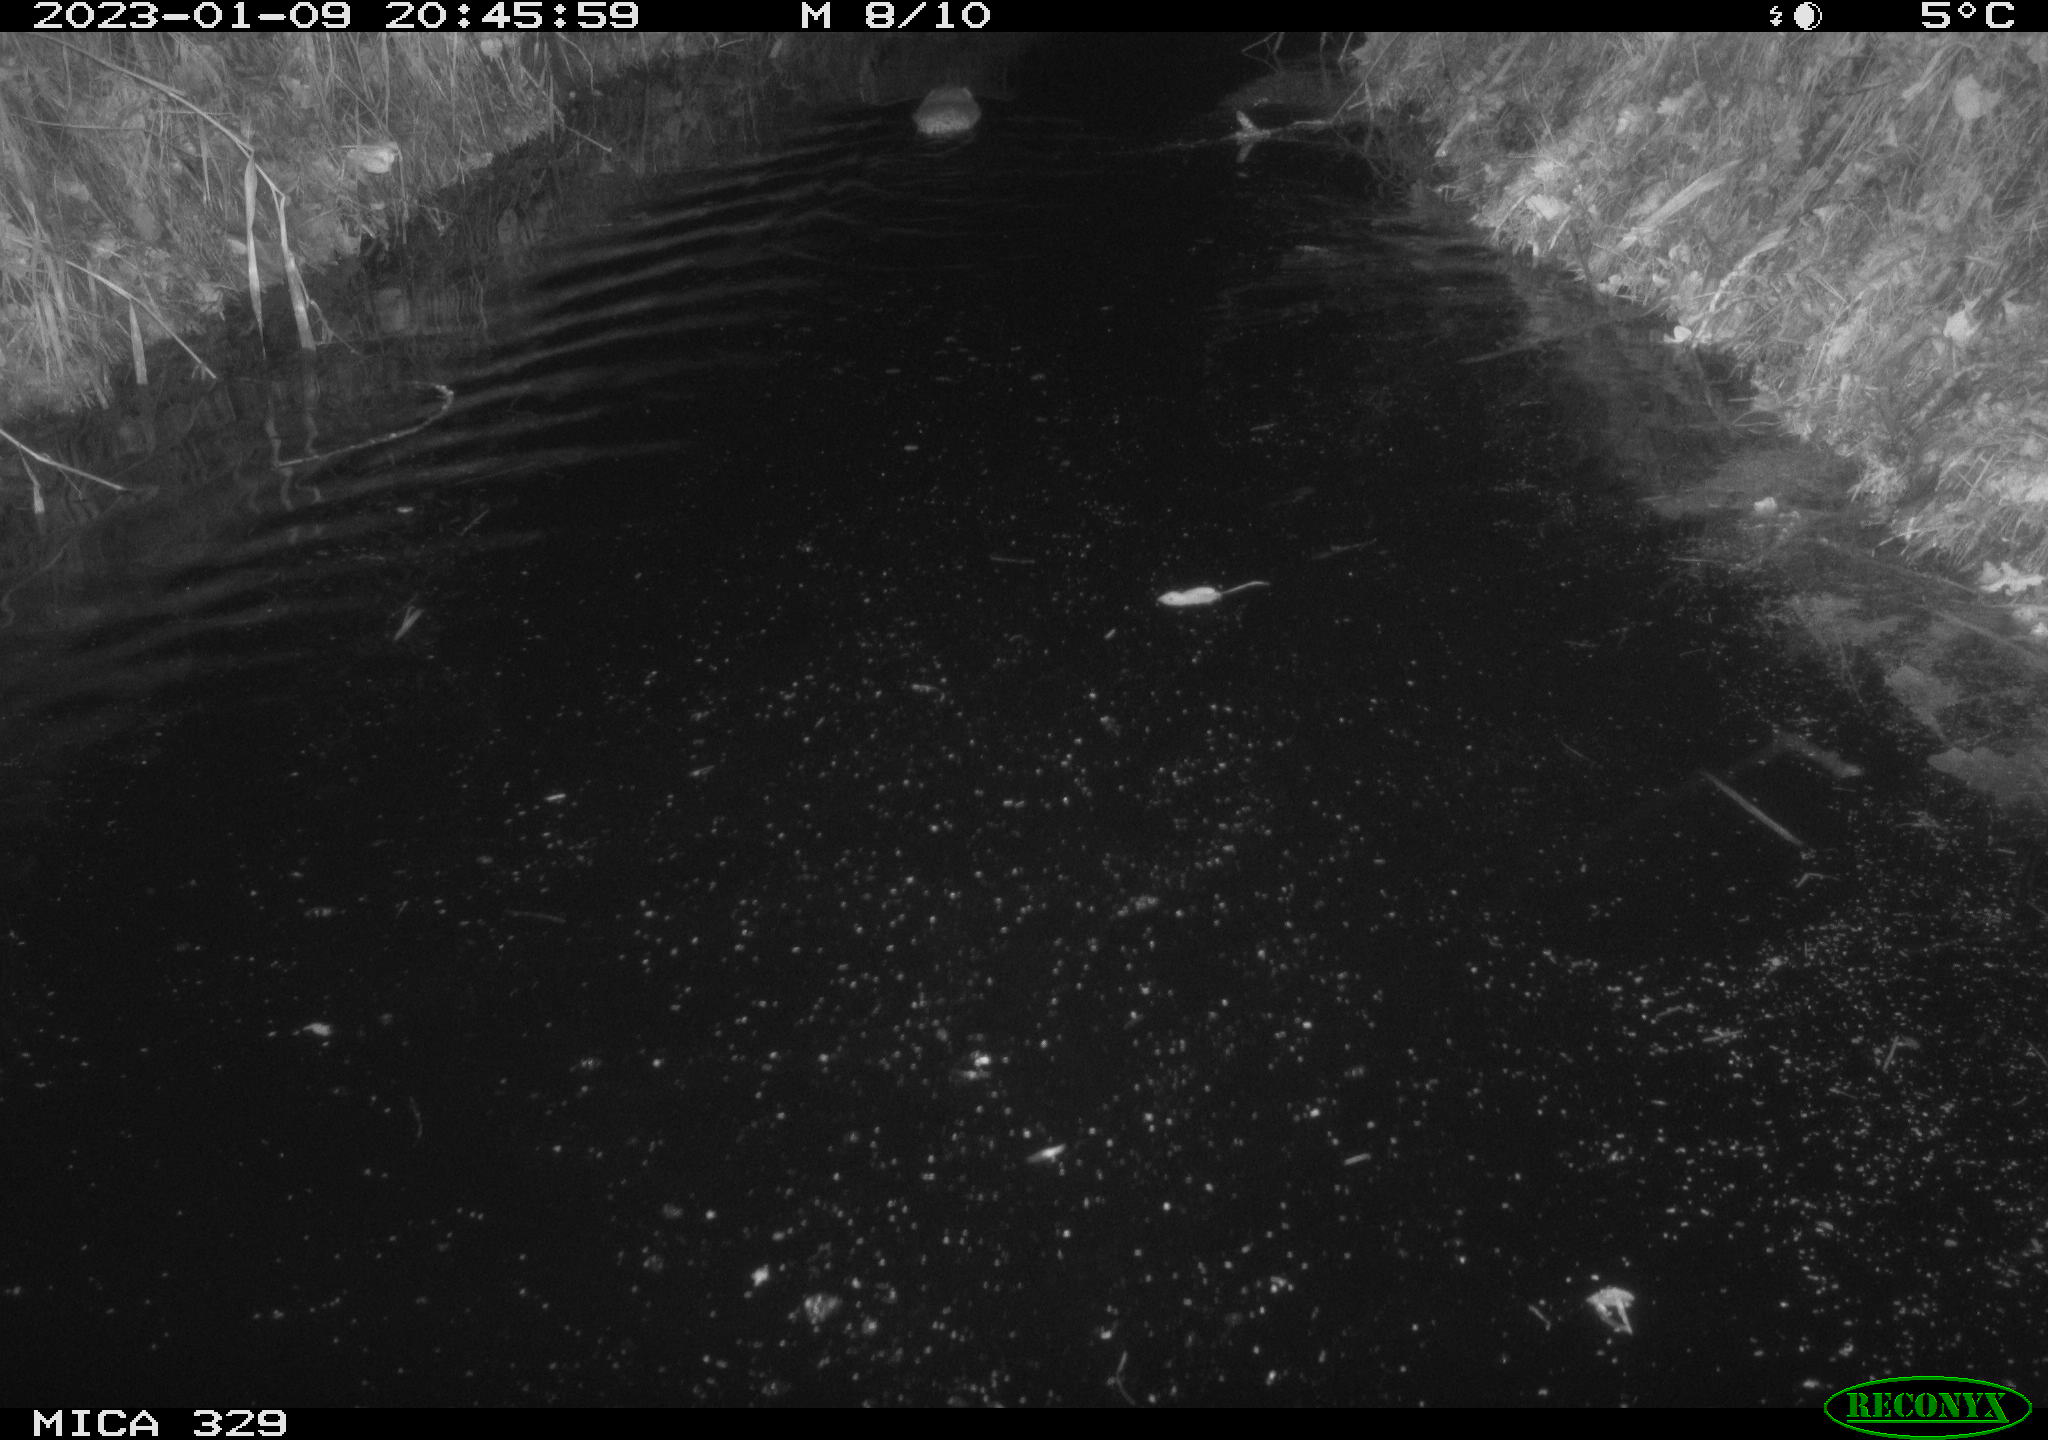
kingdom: Animalia
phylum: Chordata
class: Mammalia
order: Rodentia
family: Cricetidae
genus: Ondatra
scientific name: Ondatra zibethicus
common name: Muskrat
